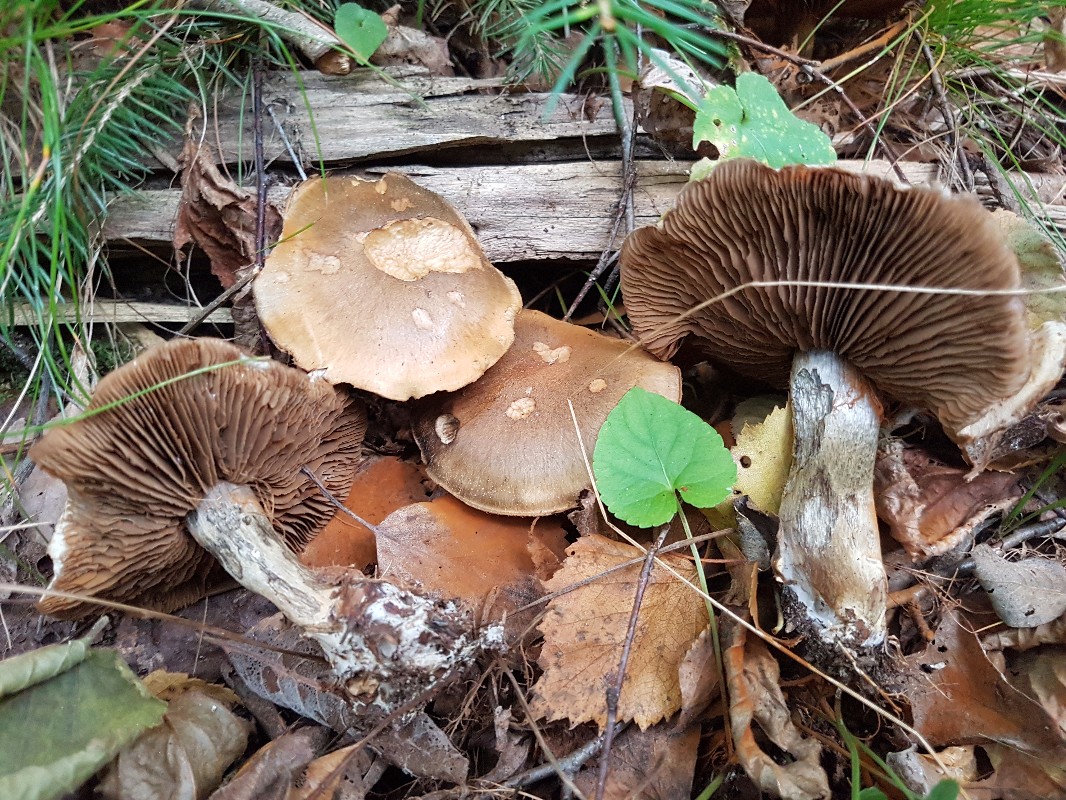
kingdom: Fungi
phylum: Basidiomycota
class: Agaricomycetes
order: Agaricales
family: Cortinariaceae
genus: Cortinarius
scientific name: Cortinarius
